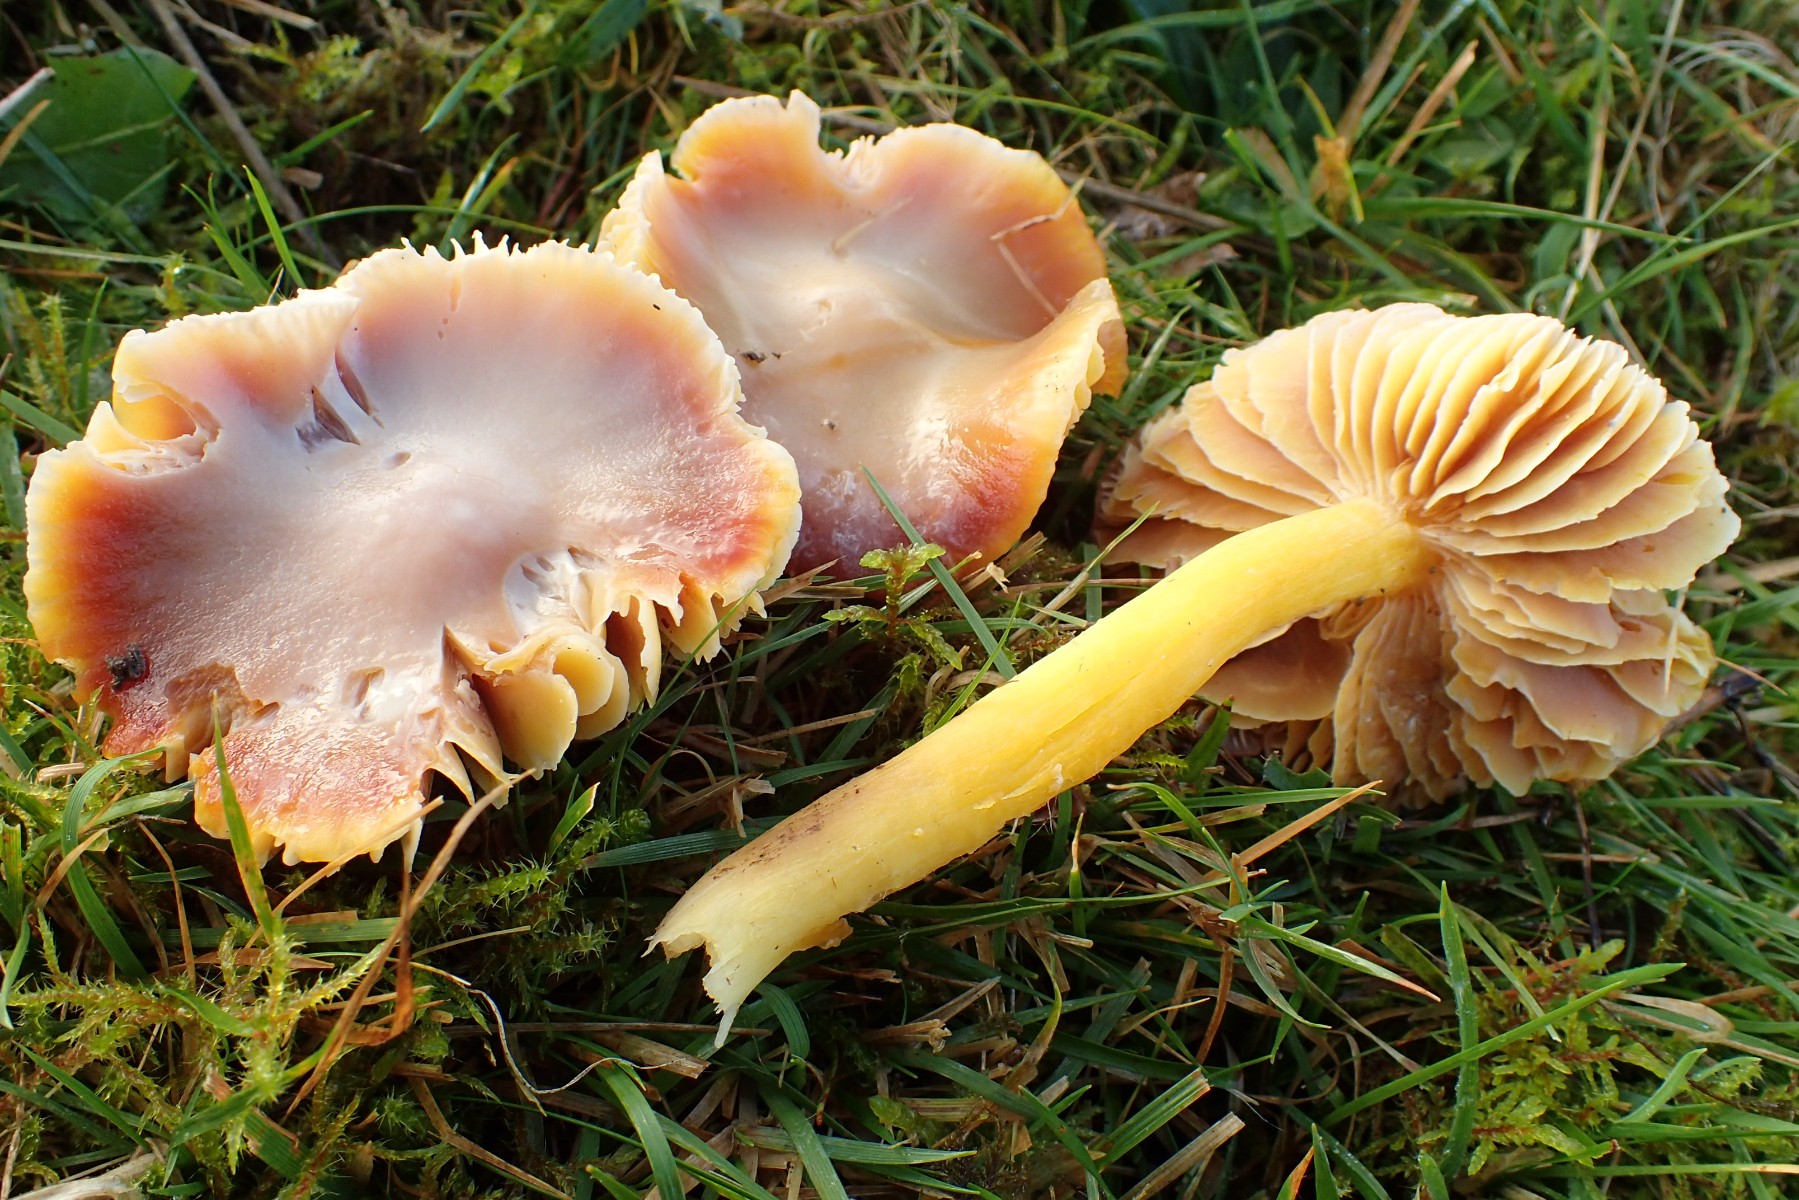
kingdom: Fungi
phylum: Basidiomycota
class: Agaricomycetes
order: Agaricales
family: Hygrophoraceae
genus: Hygrocybe
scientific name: Hygrocybe punicea
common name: skarlagen-vokshat
